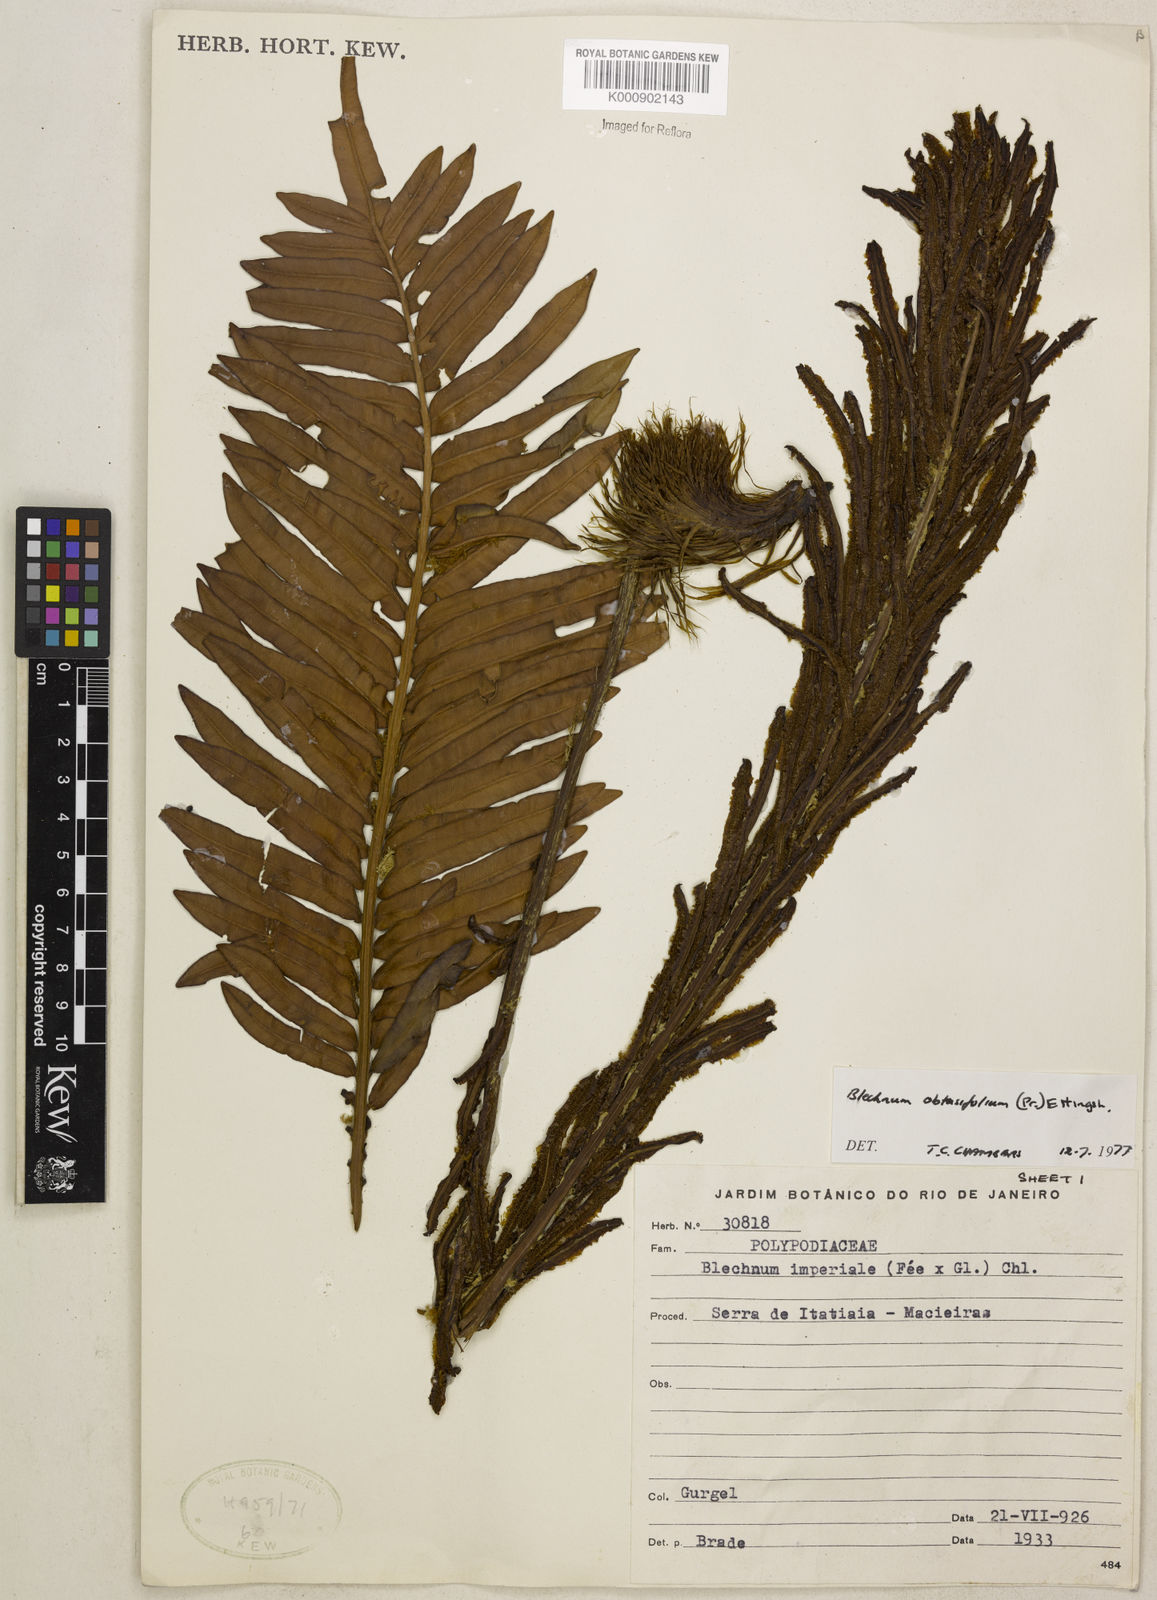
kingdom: Plantae
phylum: Tracheophyta
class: Polypodiopsida
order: Polypodiales
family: Blechnaceae
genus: Lomariocycas
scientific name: Lomariocycas obtusifolia
